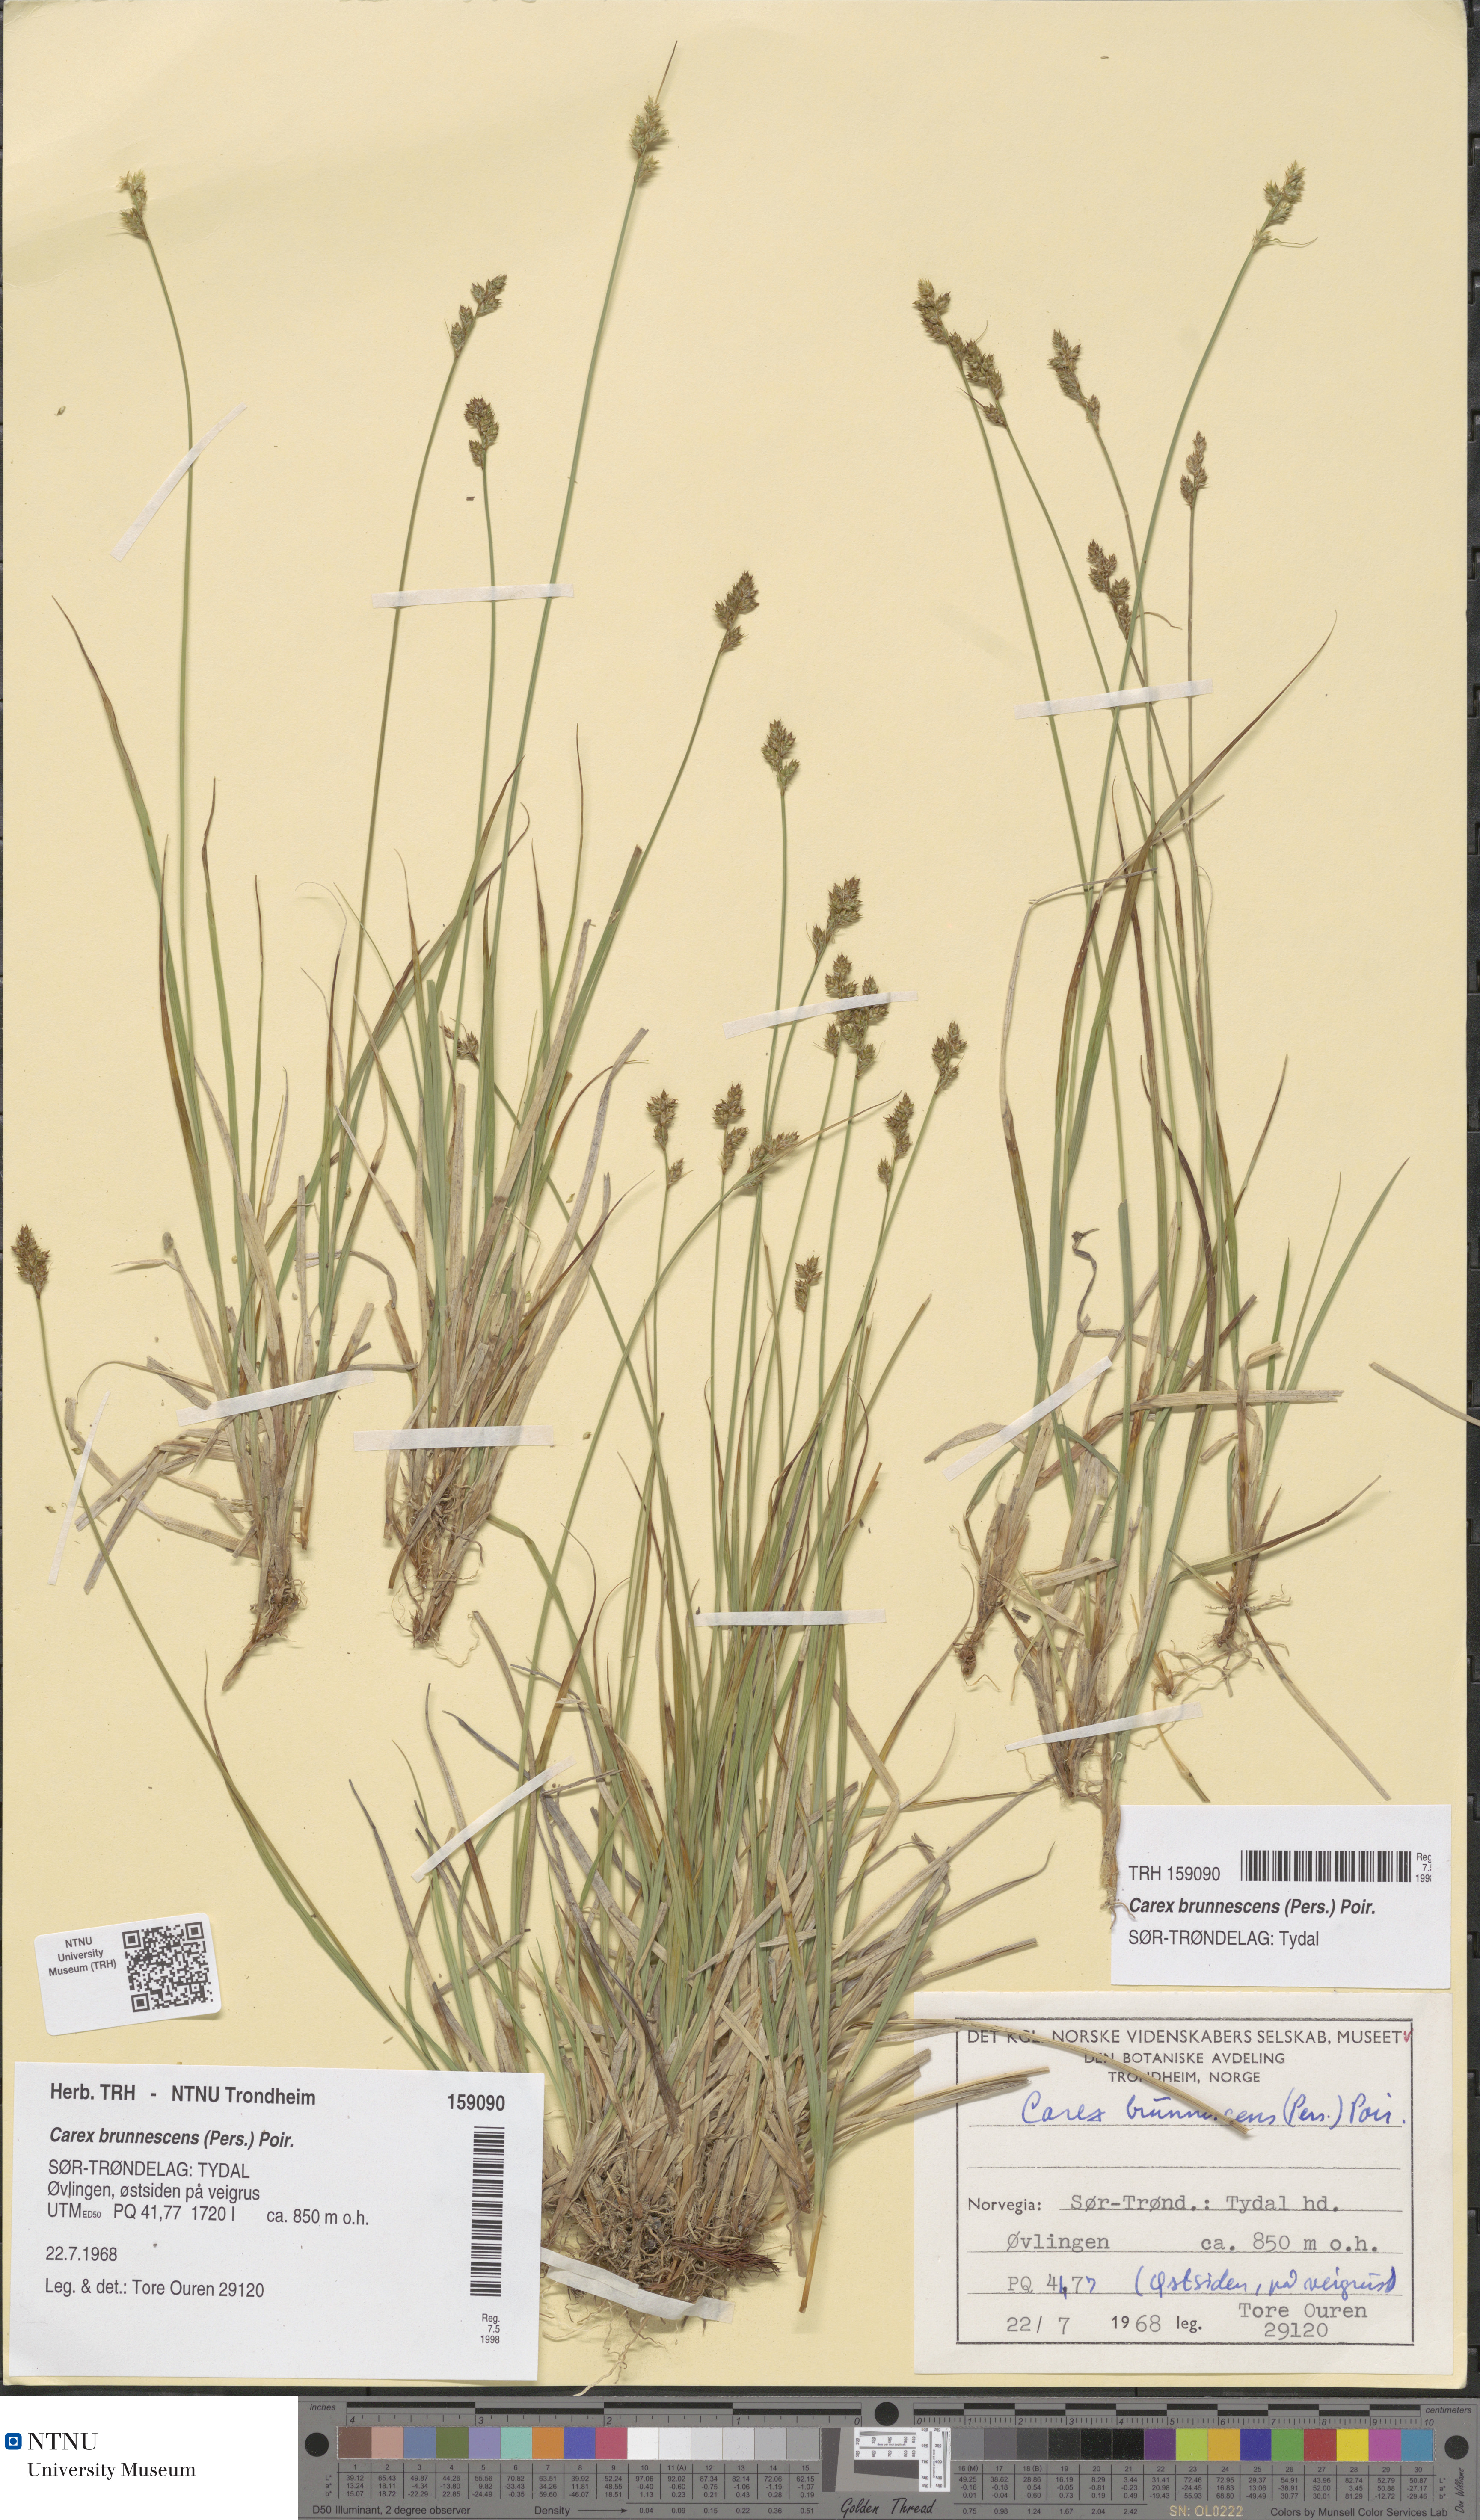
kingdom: Plantae
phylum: Tracheophyta
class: Liliopsida
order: Poales
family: Cyperaceae
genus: Carex
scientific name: Carex brunnescens
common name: Brown sedge
